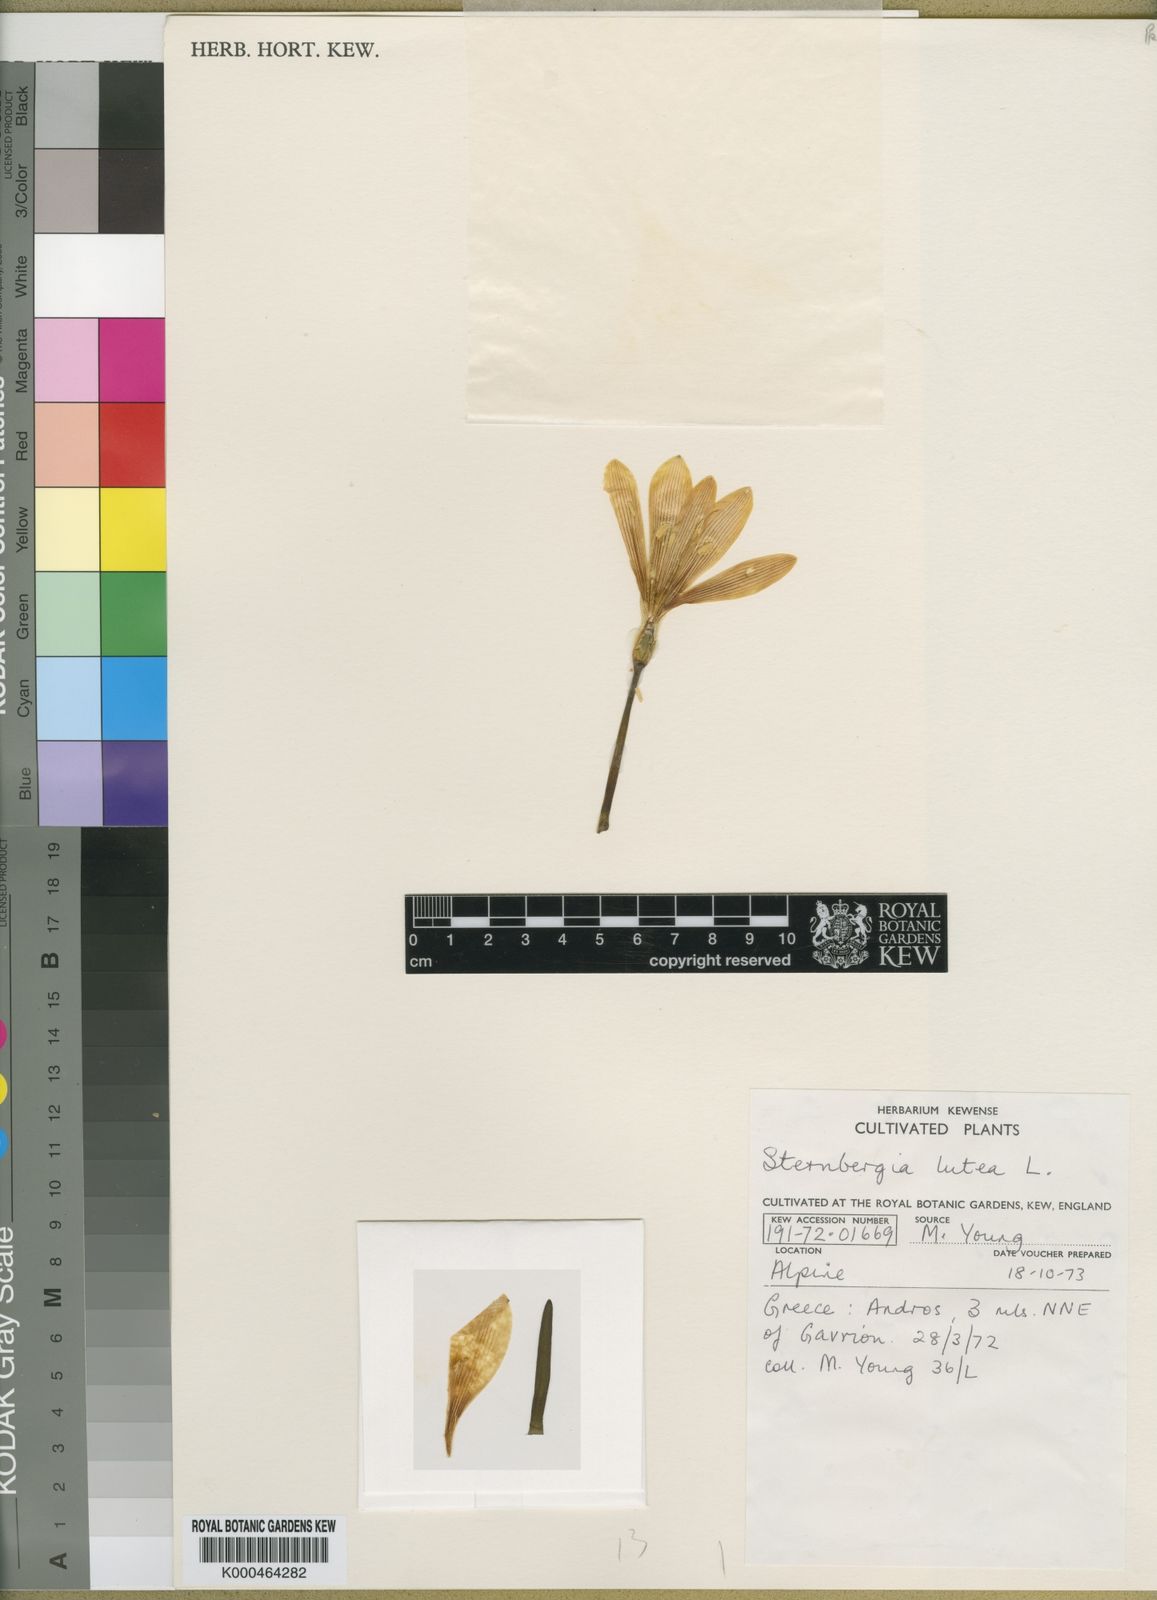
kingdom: Plantae
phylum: Tracheophyta
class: Liliopsida
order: Asparagales
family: Amaryllidaceae
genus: Sternbergia
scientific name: Sternbergia
